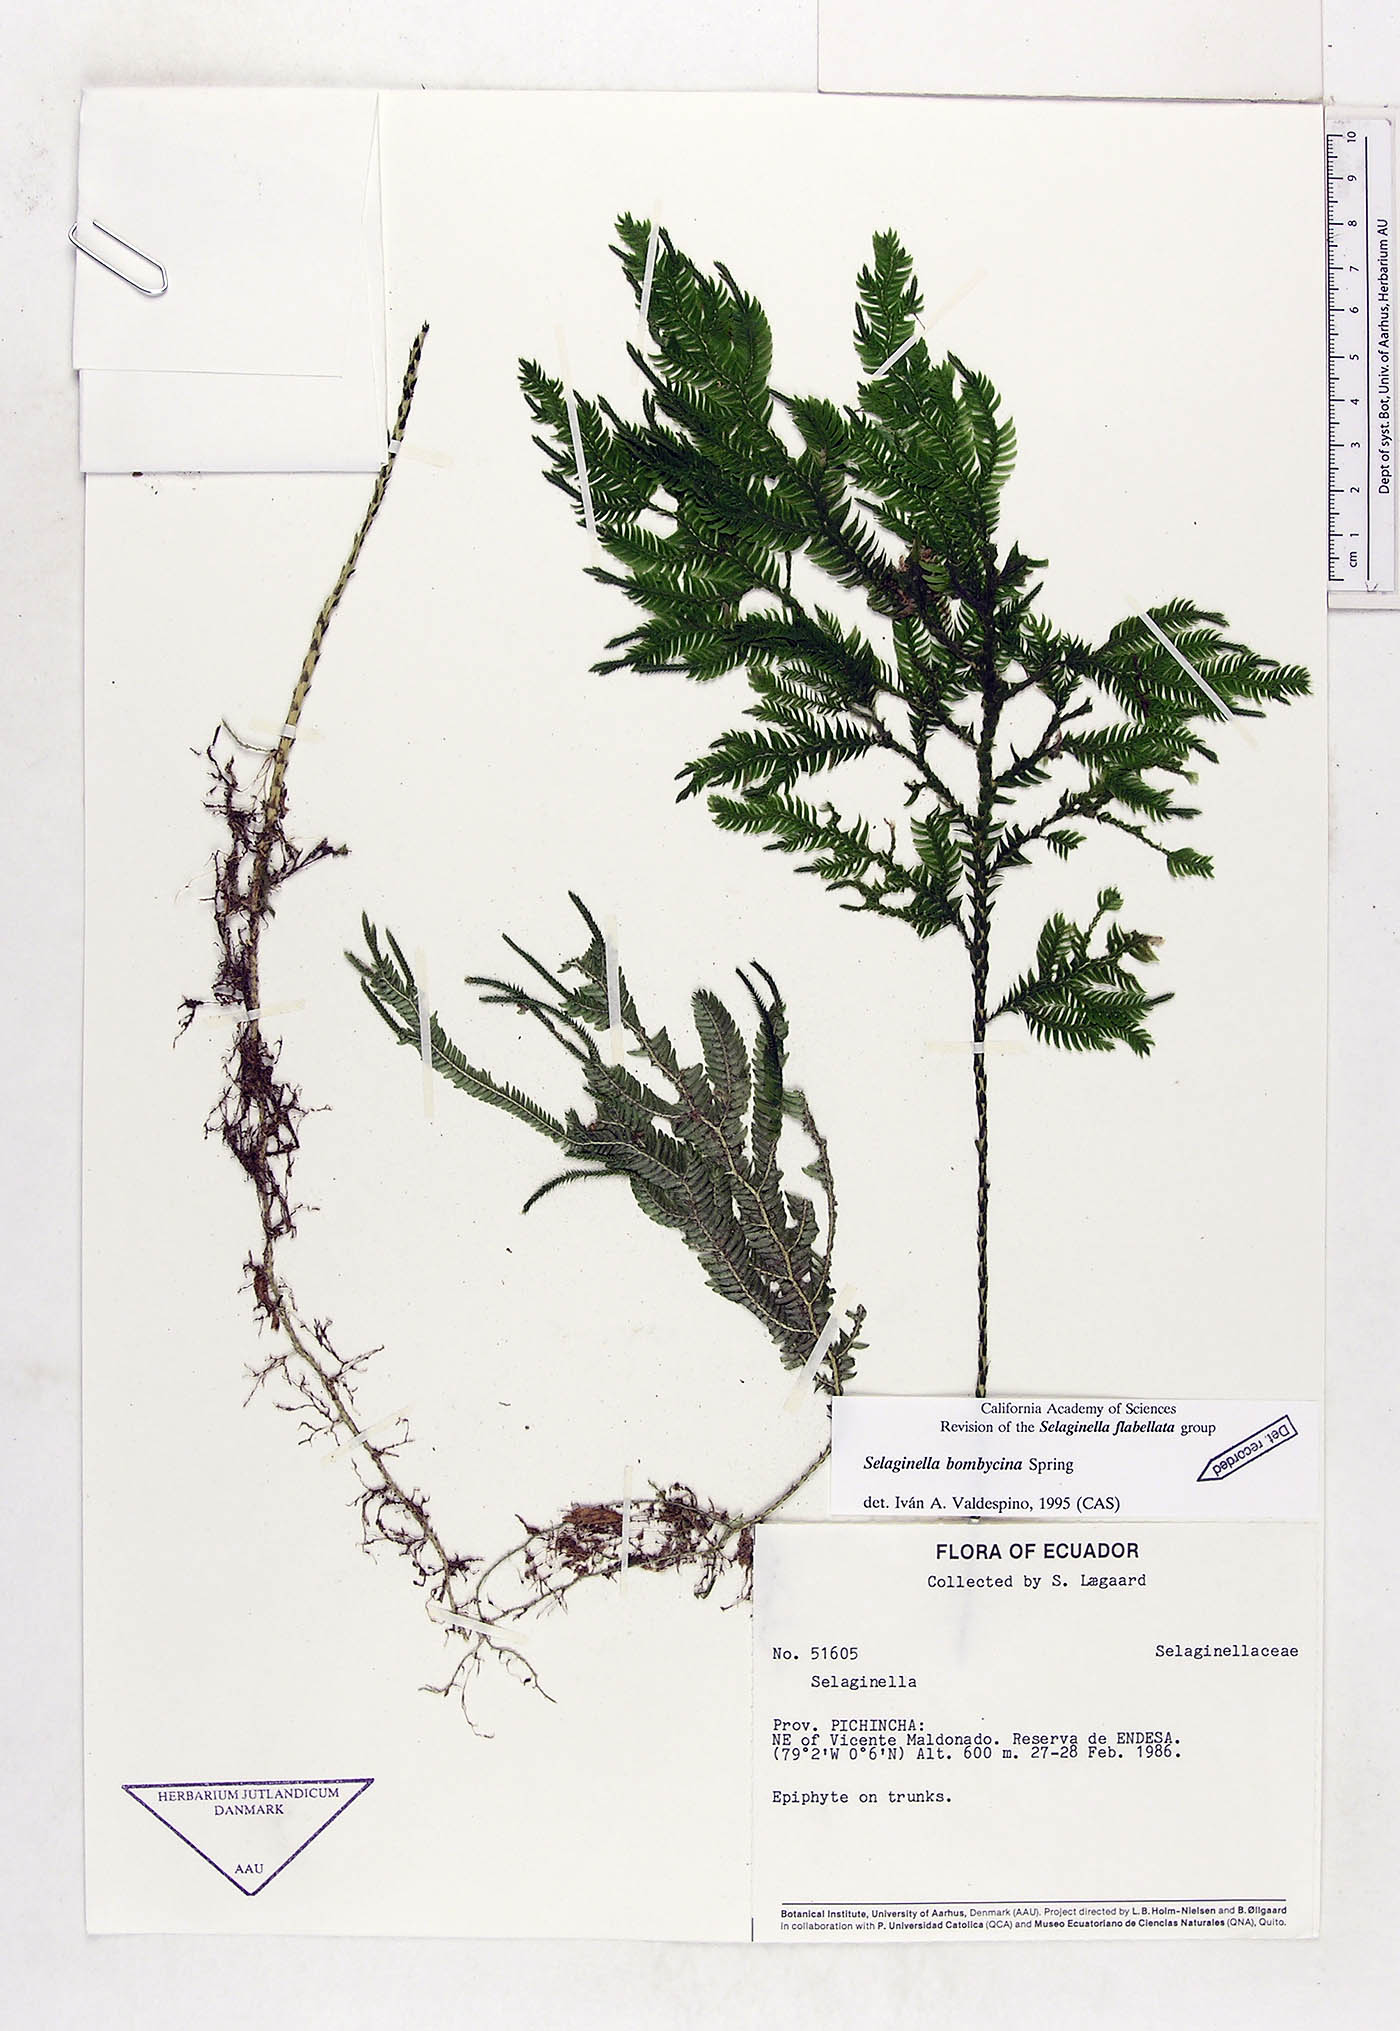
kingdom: Plantae
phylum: Tracheophyta
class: Lycopodiopsida
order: Selaginellales
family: Selaginellaceae
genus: Selaginella
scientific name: Selaginella bombycina
